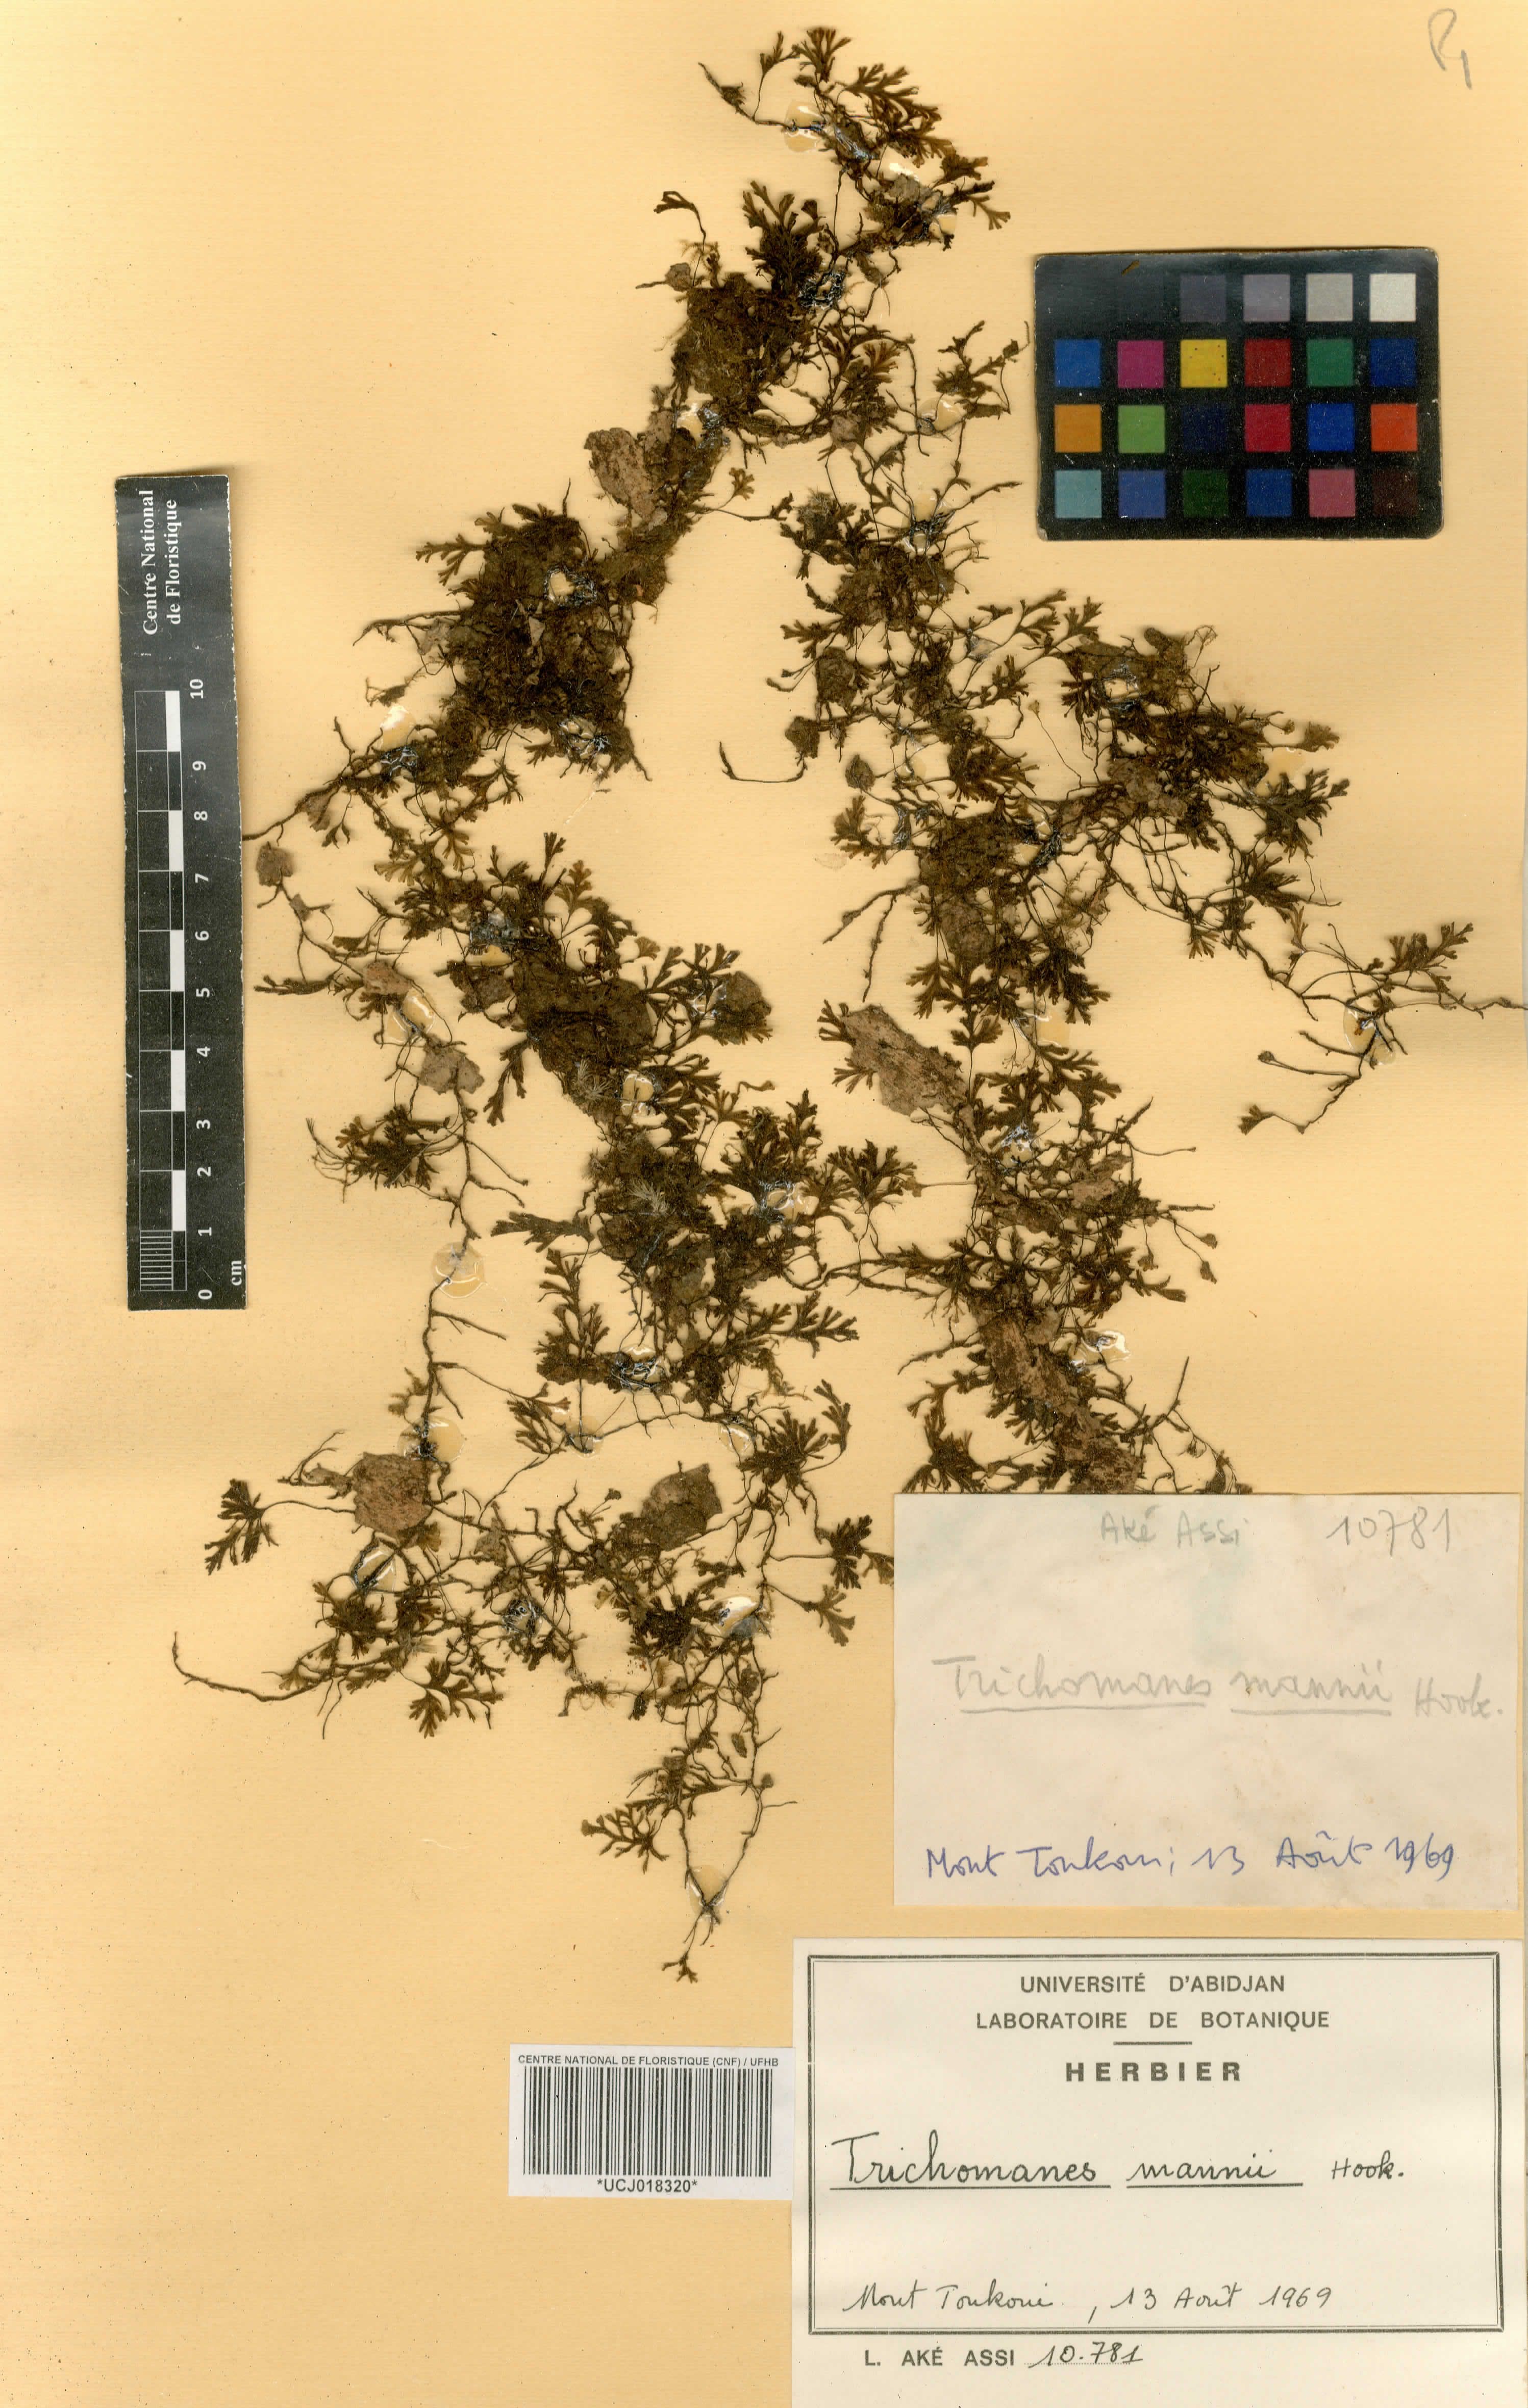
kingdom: Plantae
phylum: Tracheophyta
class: Polypodiopsida
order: Hymenophyllales
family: Hymenophyllaceae
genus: Crepidomanes
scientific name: Crepidomanes parvulum
